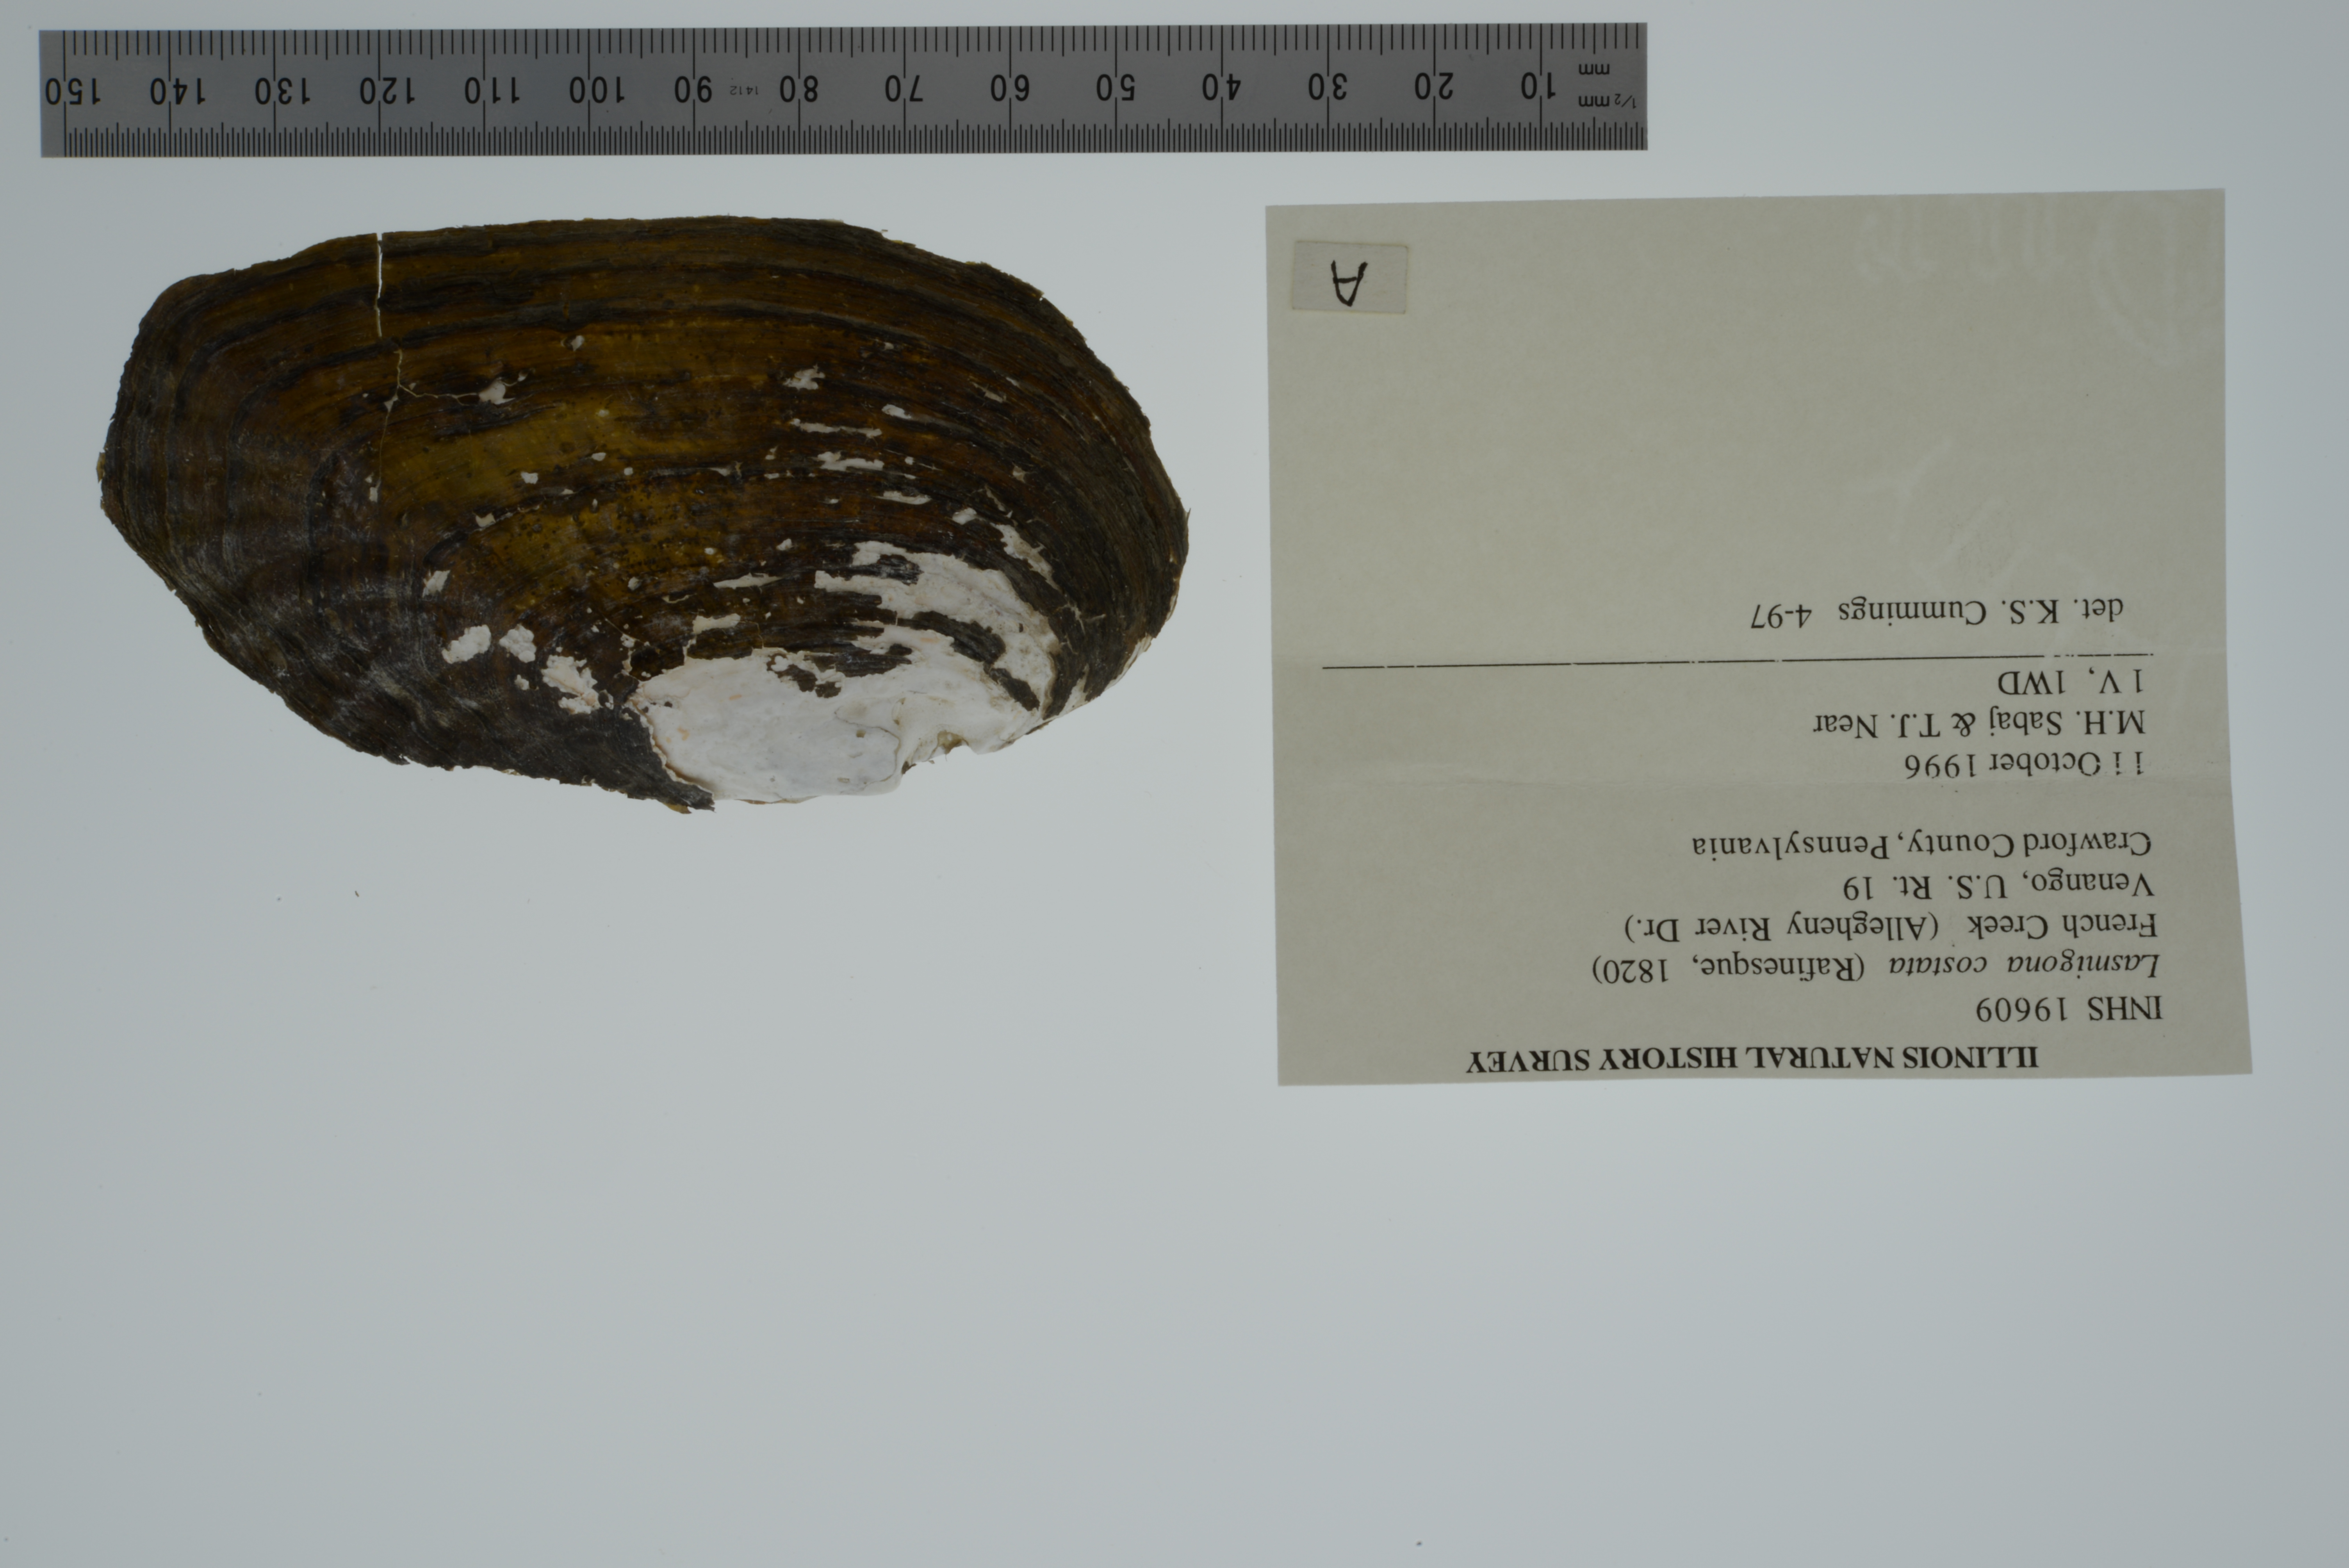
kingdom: Animalia
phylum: Mollusca
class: Bivalvia
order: Unionida
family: Unionidae
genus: Lasmigona
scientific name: Lasmigona costata
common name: Flutedshell
